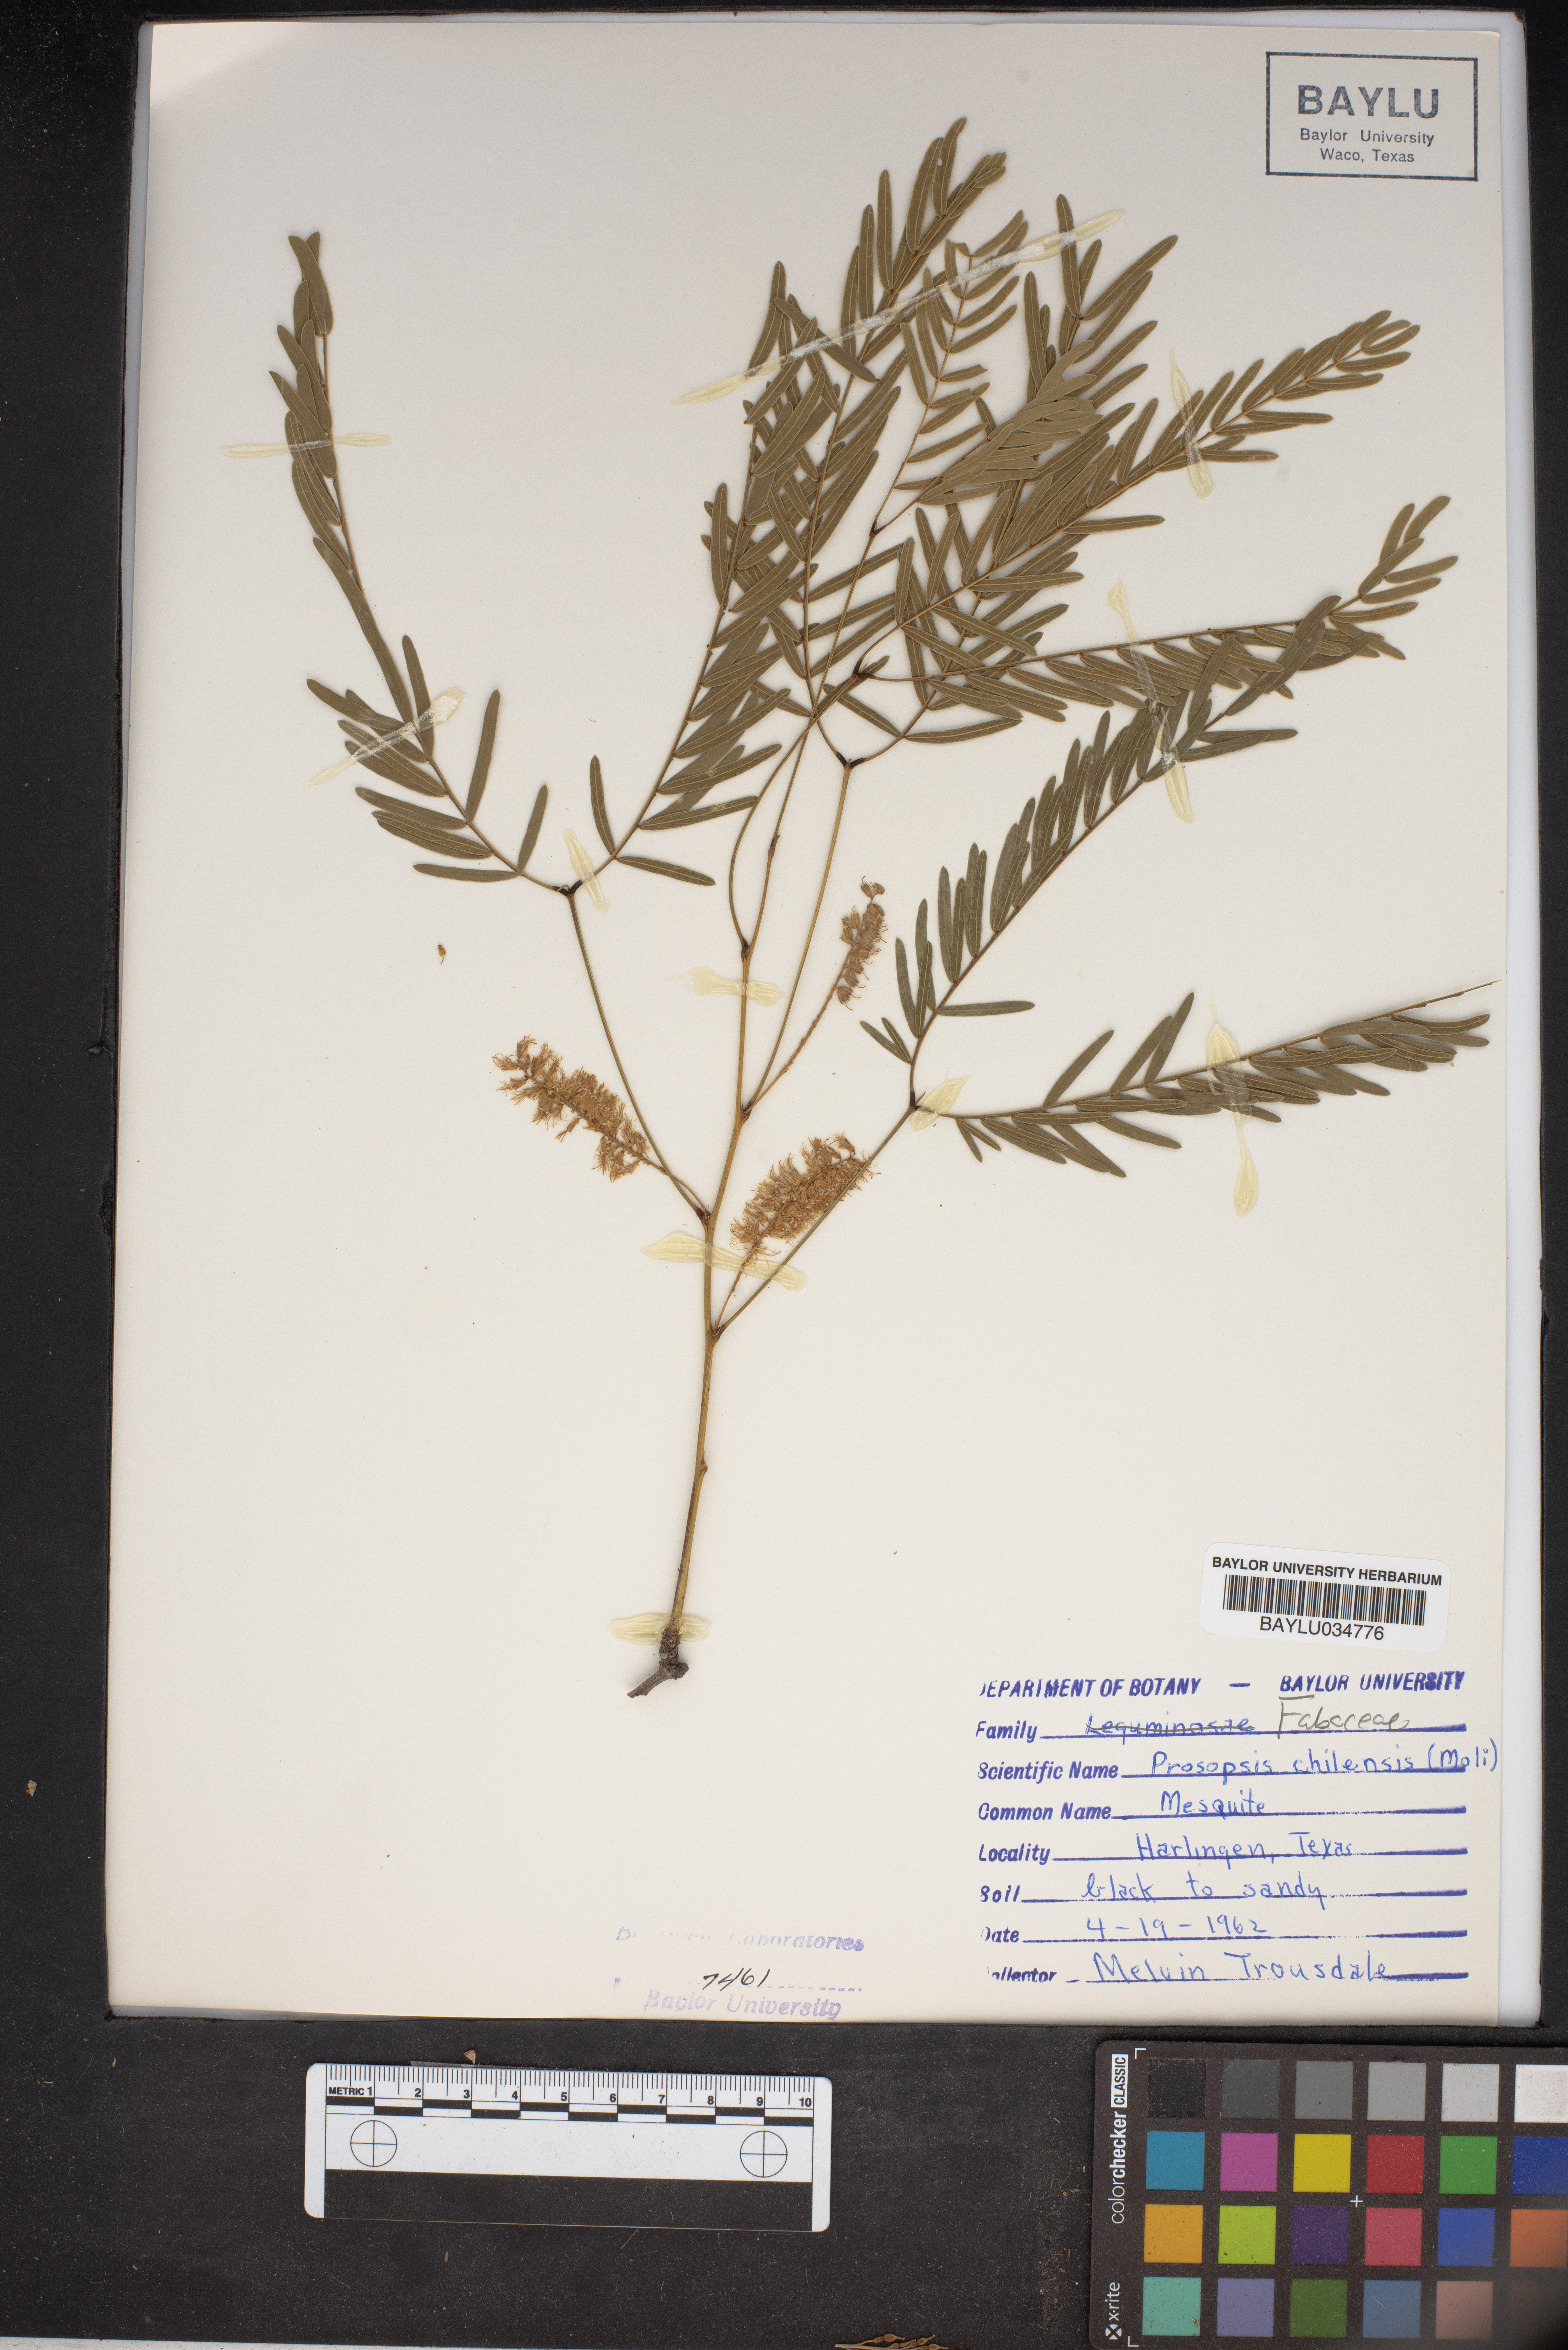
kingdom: Plantae
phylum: Tracheophyta
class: Magnoliopsida
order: Fabales
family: Fabaceae
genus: Prosopis
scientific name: Prosopis chilensis
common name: Chilean algarrobo
